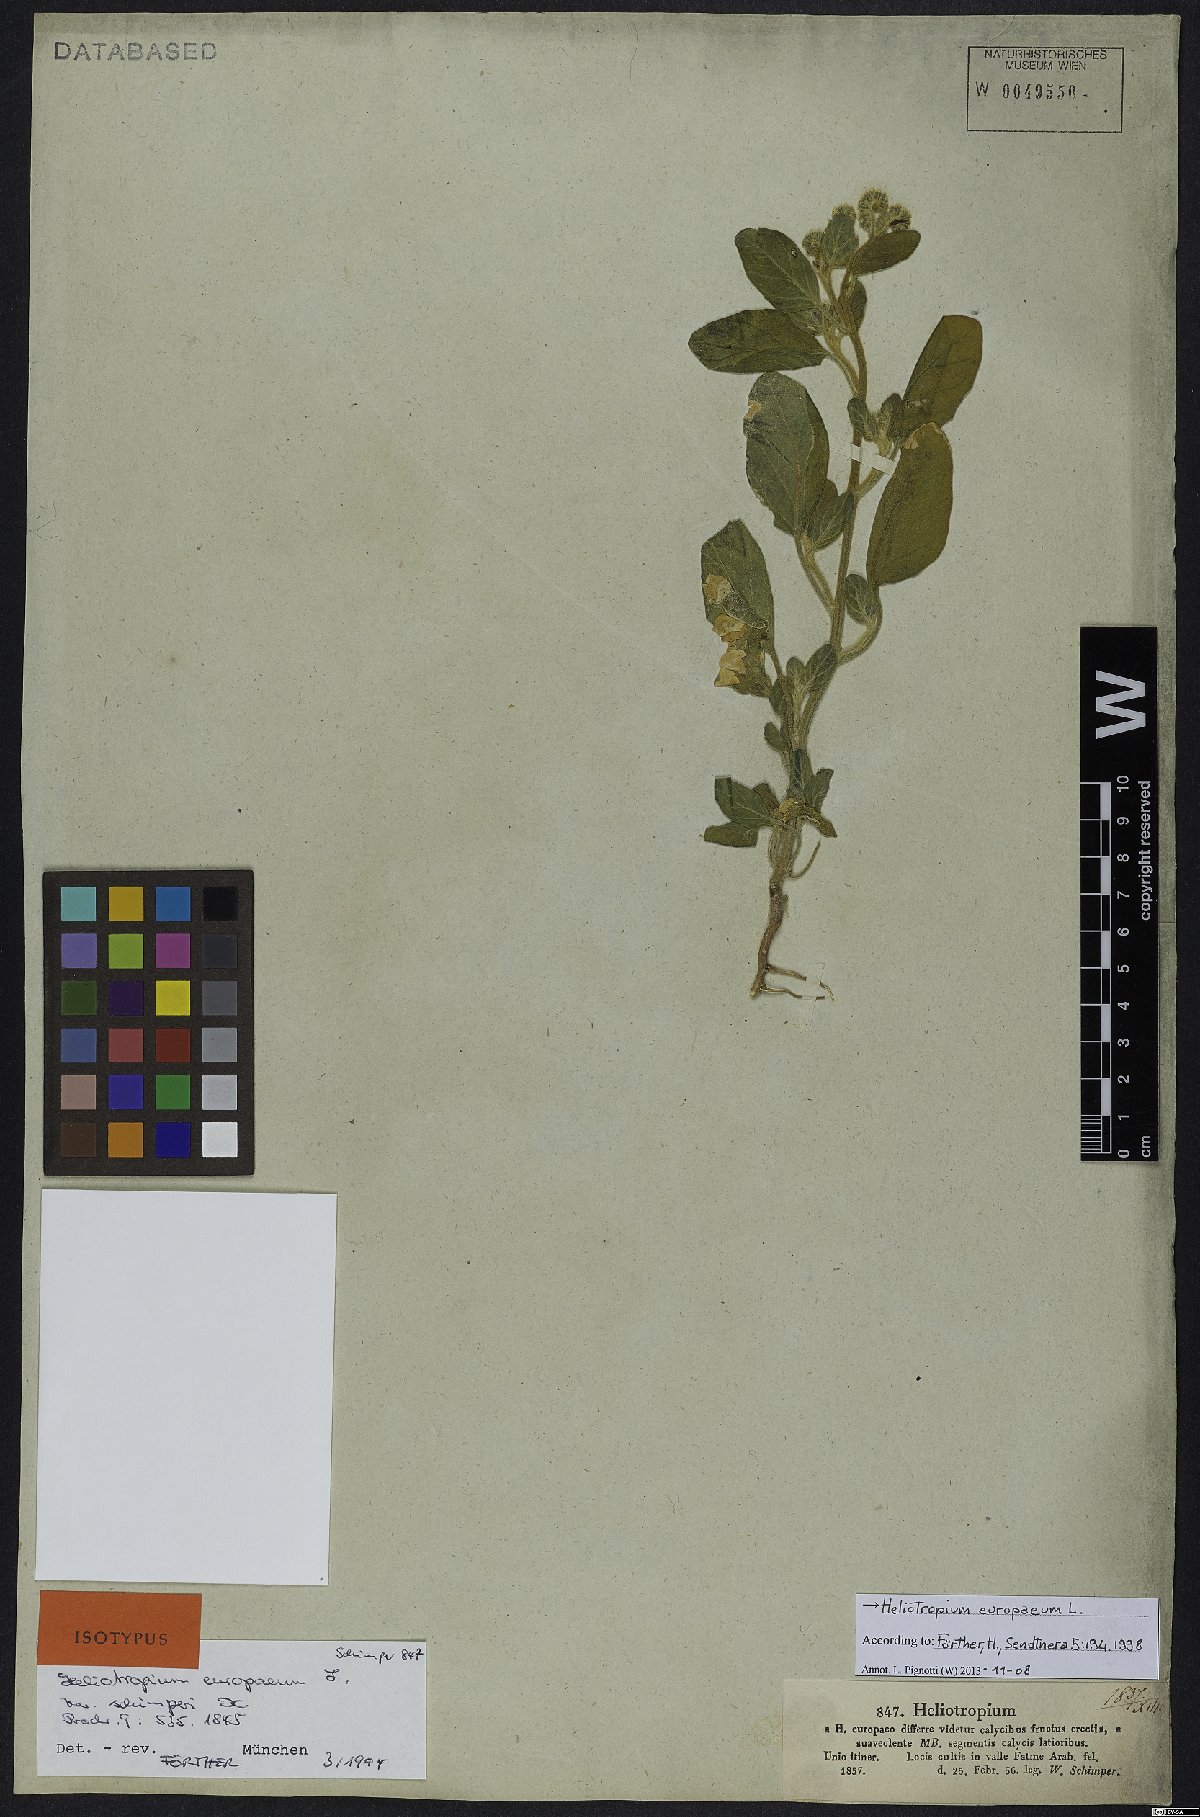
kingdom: Plantae
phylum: Tracheophyta
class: Magnoliopsida
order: Boraginales
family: Heliotropiaceae
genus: Heliotropium
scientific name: Heliotropium europaeum
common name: European heliotrope
